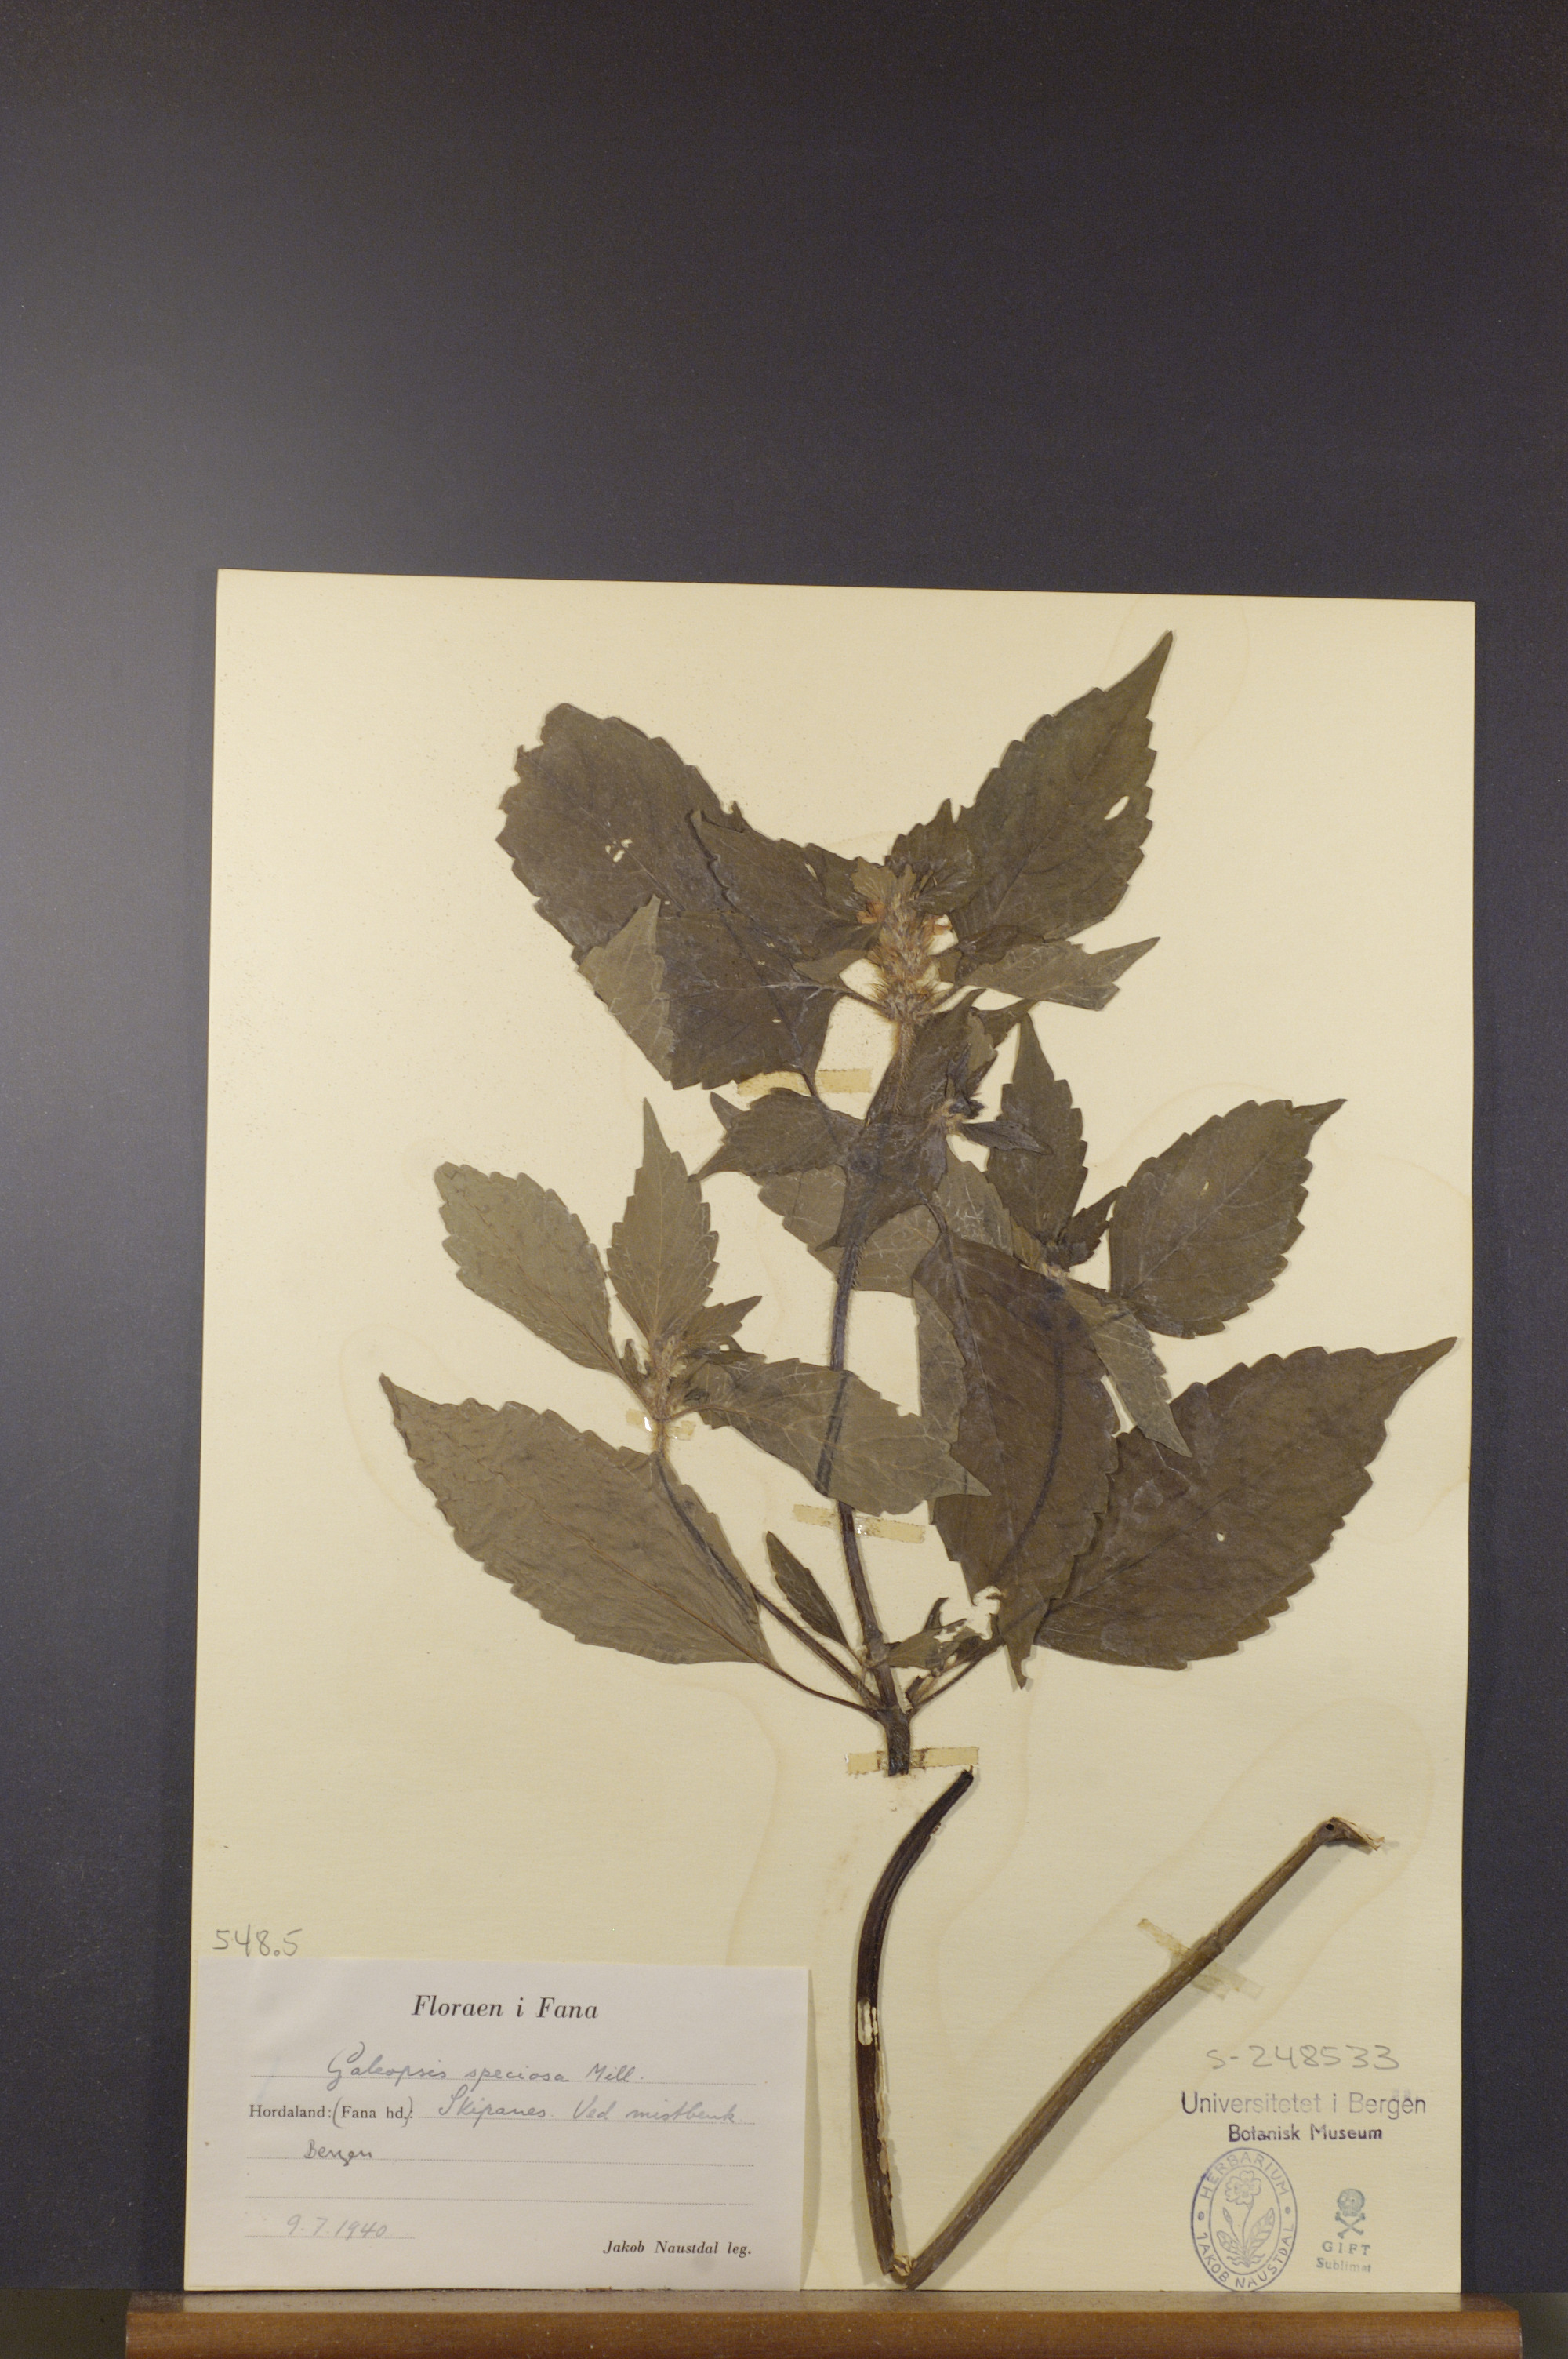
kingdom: Plantae
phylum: Tracheophyta
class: Magnoliopsida
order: Lamiales
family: Lamiaceae
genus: Galeopsis
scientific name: Galeopsis speciosa
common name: Large-flowered hemp-nettle
